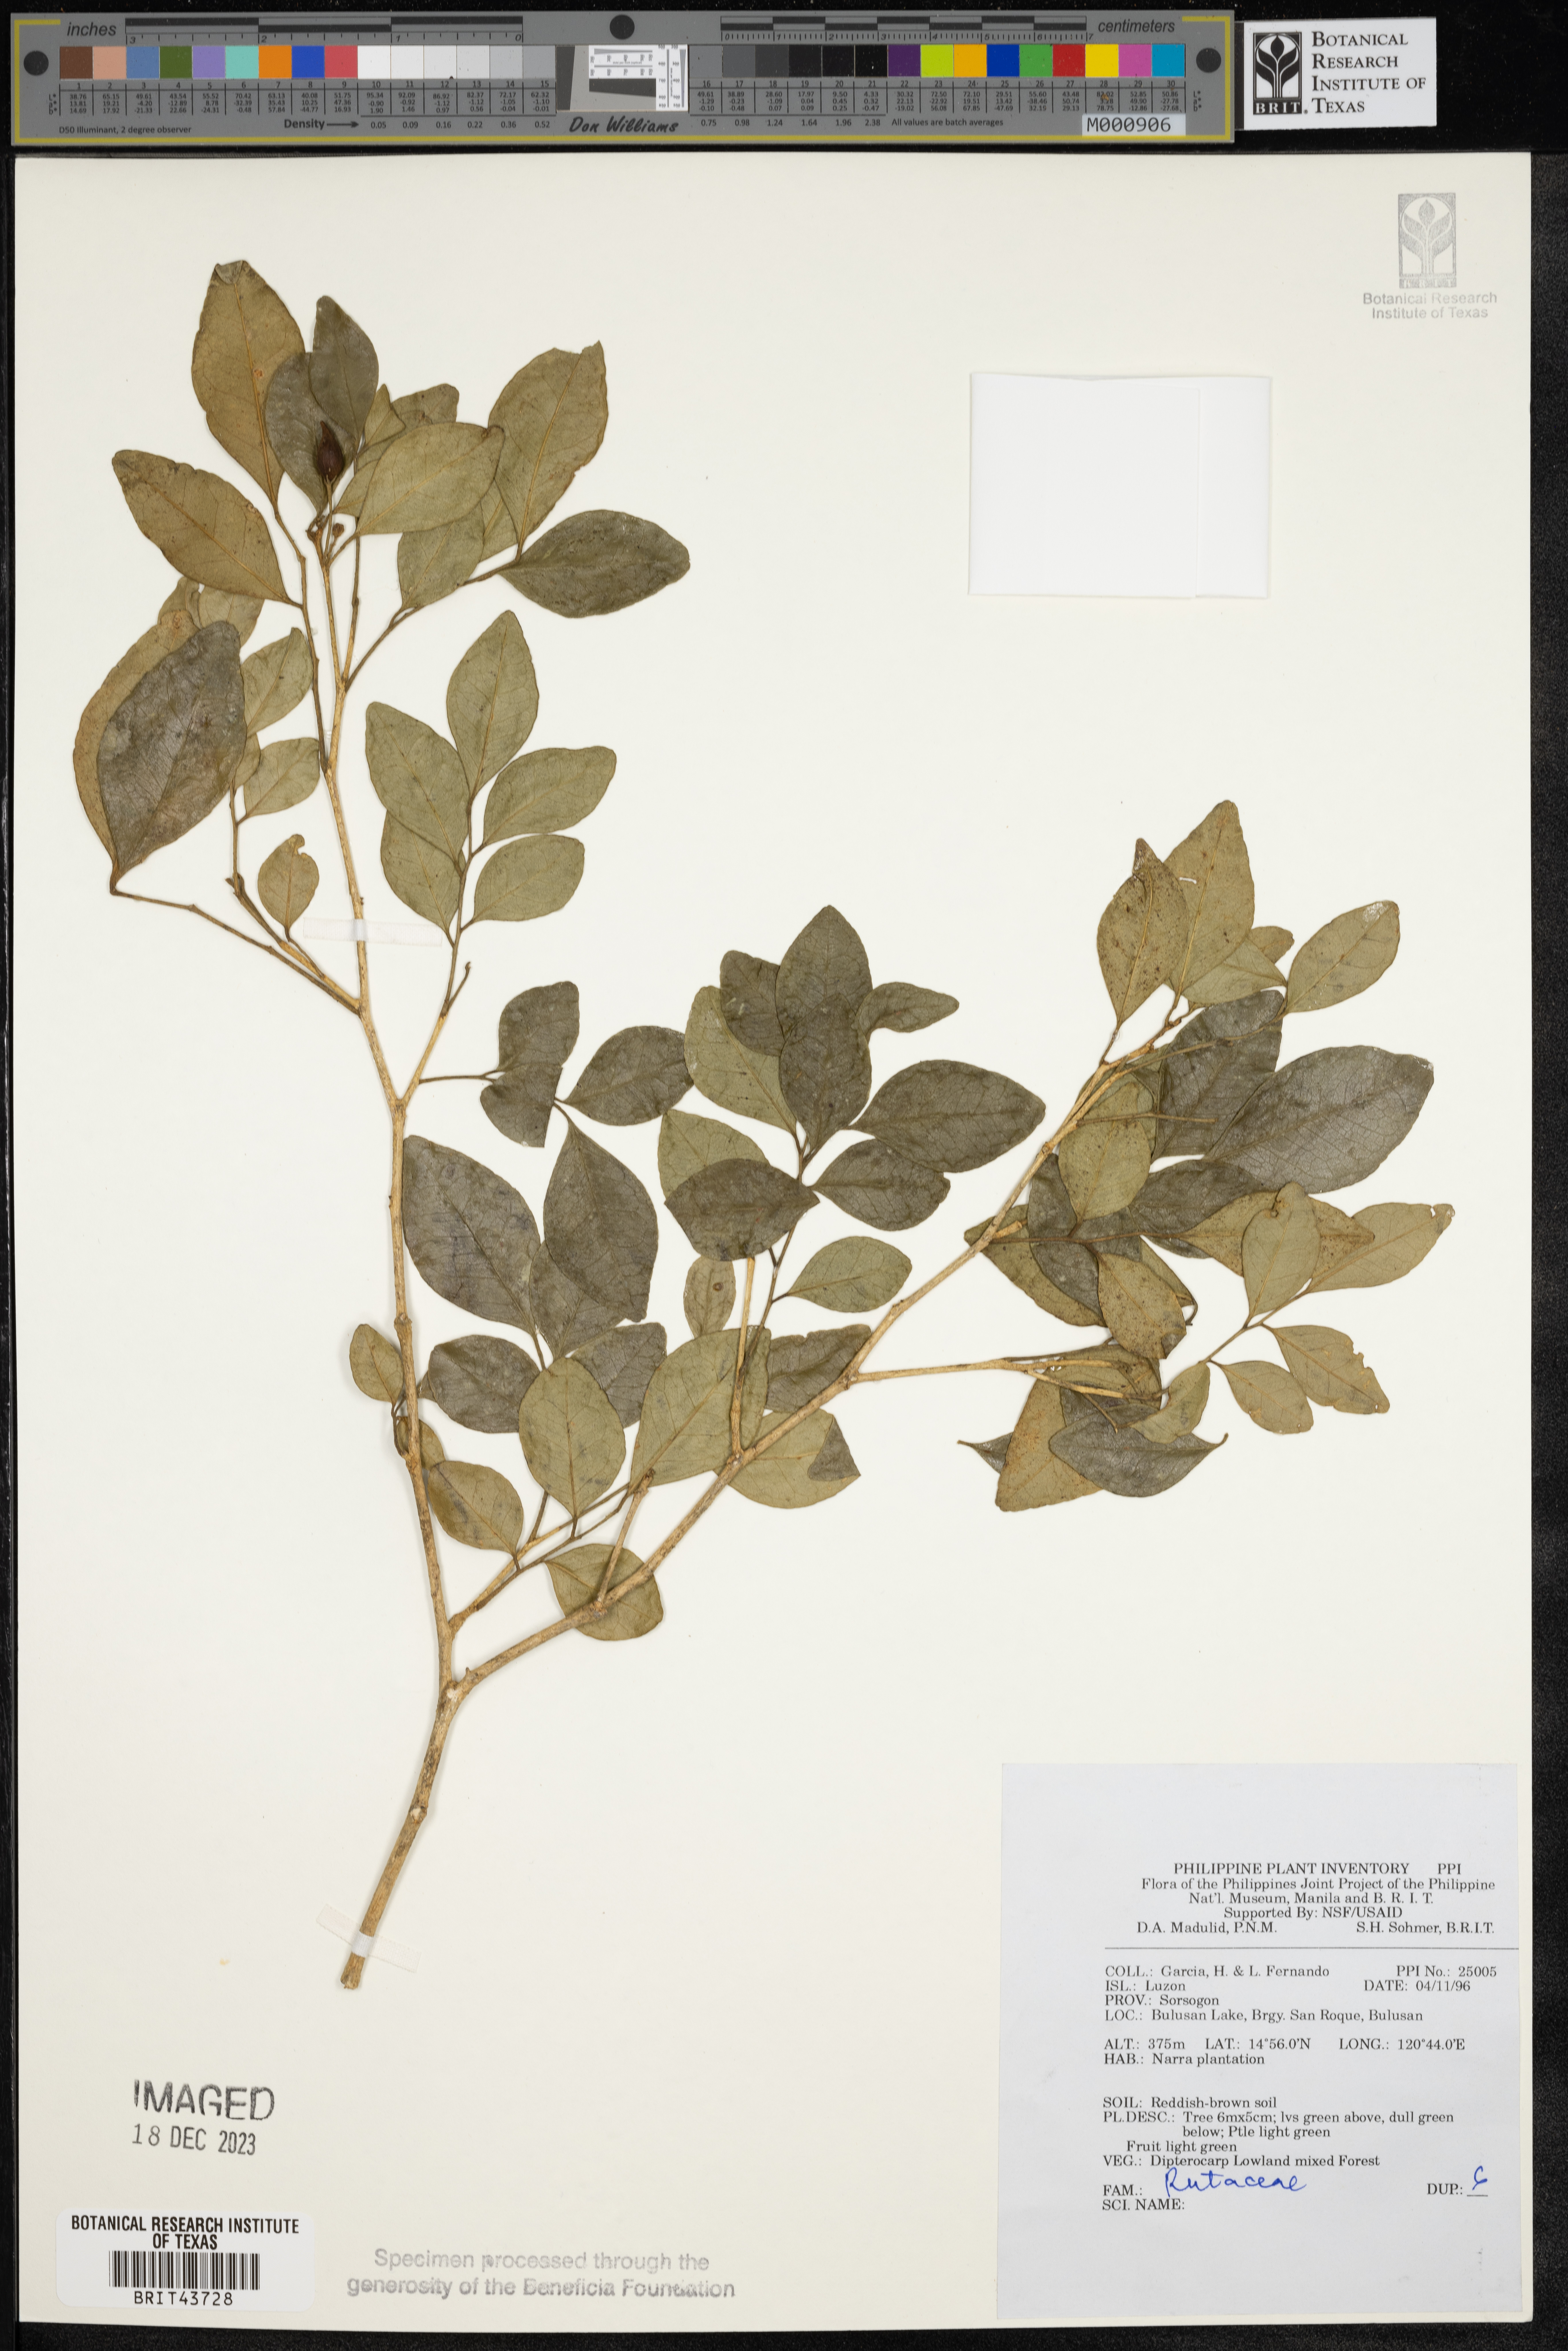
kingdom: Plantae
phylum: Tracheophyta
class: Magnoliopsida
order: Sapindales
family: Rutaceae
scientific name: Rutaceae
